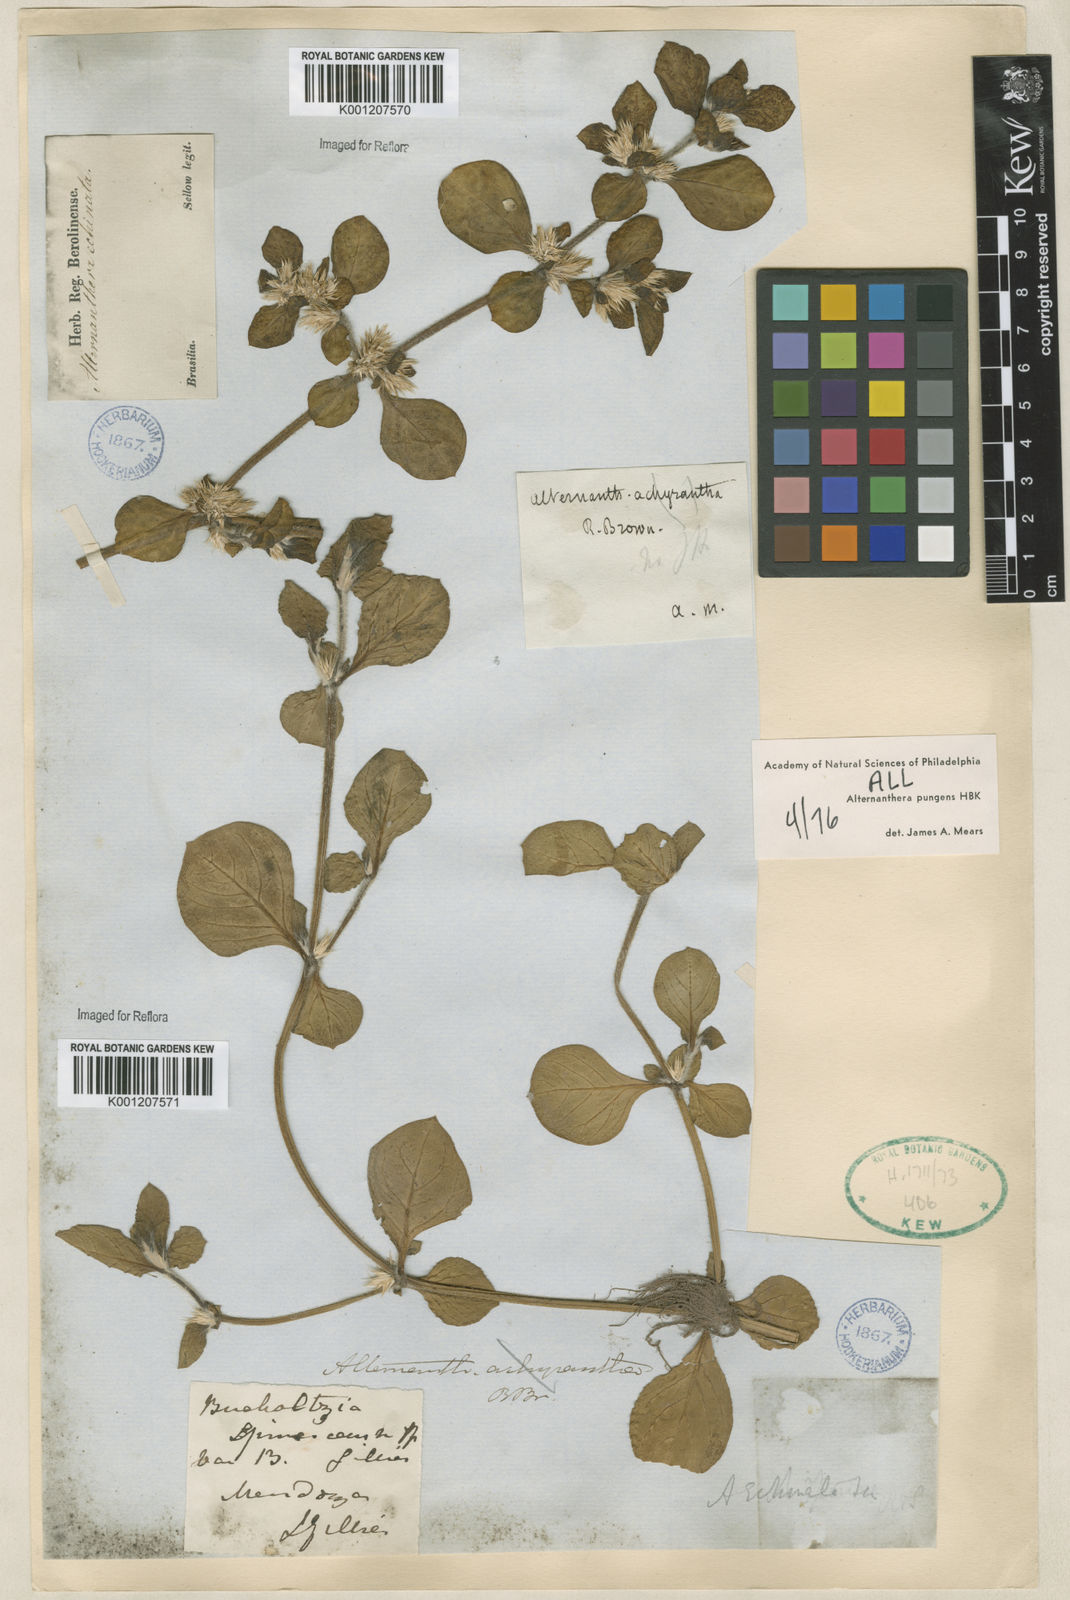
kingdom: Plantae
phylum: Tracheophyta
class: Magnoliopsida
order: Caryophyllales
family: Amaranthaceae
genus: Alternanthera
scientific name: Alternanthera pungens
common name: Khakiweed
